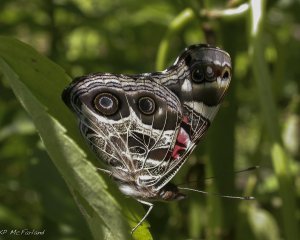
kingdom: Animalia
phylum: Arthropoda
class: Insecta
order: Lepidoptera
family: Nymphalidae
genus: Vanessa
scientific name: Vanessa virginiensis
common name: American Lady
